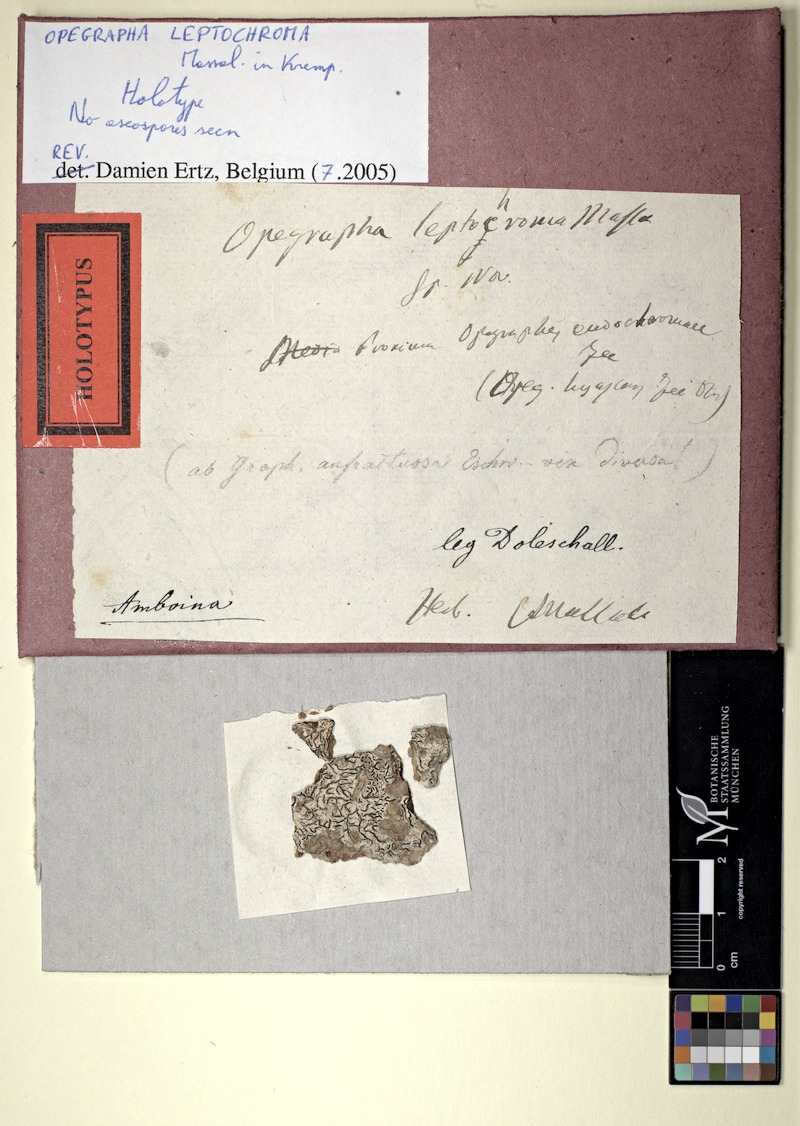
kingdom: Fungi
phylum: Ascomycota
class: Arthoniomycetes
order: Arthoniales
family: Opegraphaceae
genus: Opegrapha
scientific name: Opegrapha
